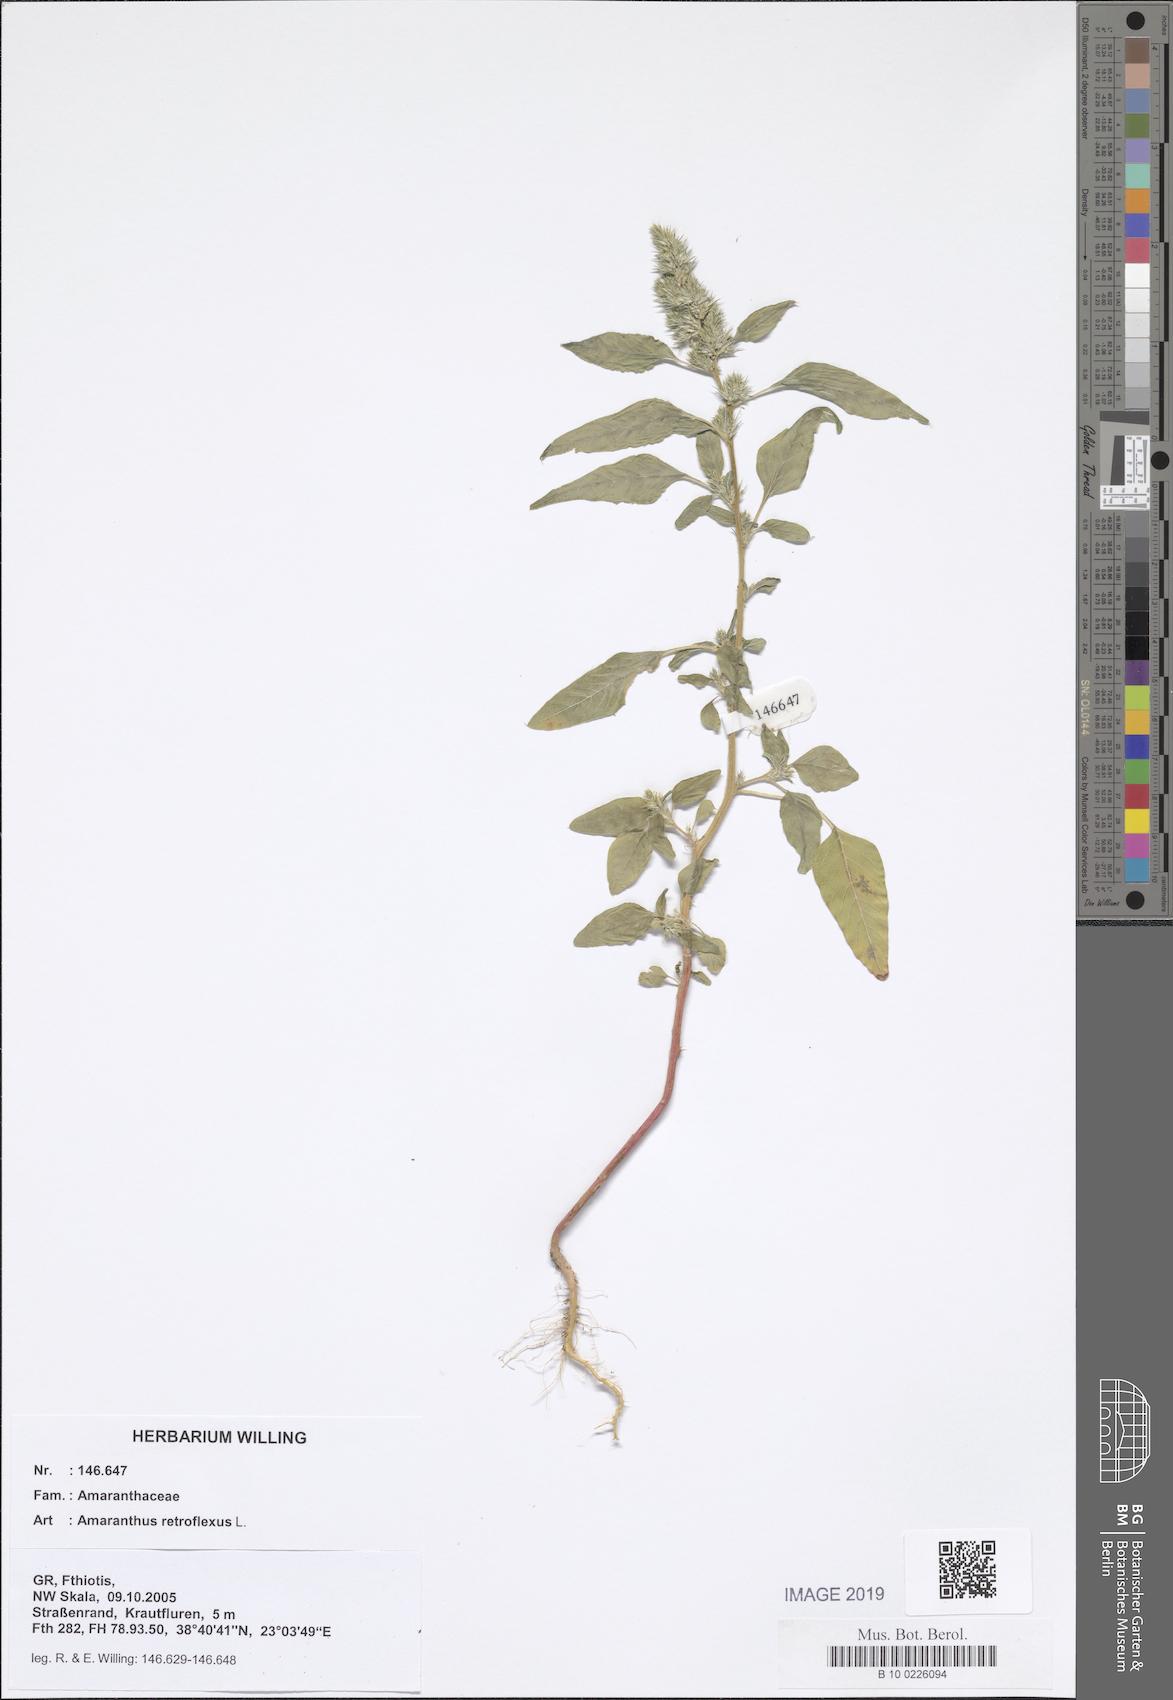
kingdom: Plantae
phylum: Tracheophyta
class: Magnoliopsida
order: Caryophyllales
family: Amaranthaceae
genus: Amaranthus
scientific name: Amaranthus retroflexus
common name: Redroot amaranth
